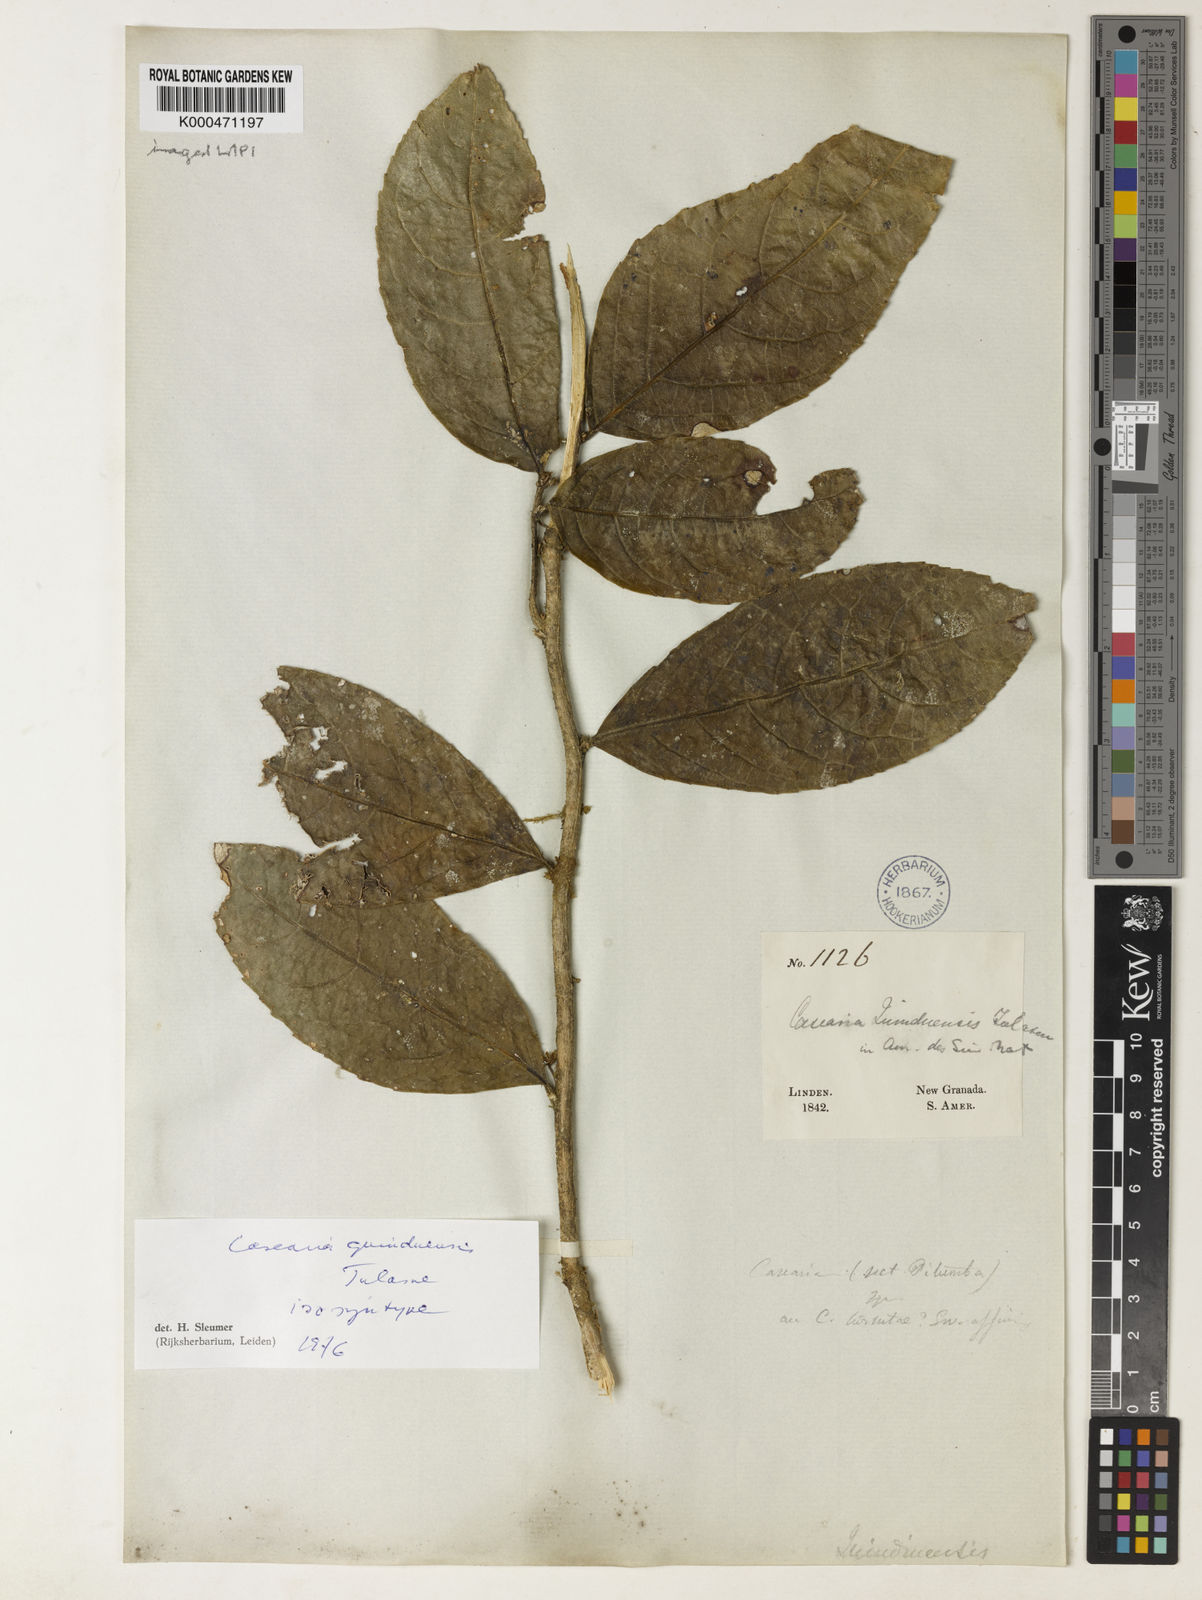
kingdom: Plantae
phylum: Tracheophyta
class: Magnoliopsida
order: Malpighiales
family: Salicaceae
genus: Casearia
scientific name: Casearia quinduensis
